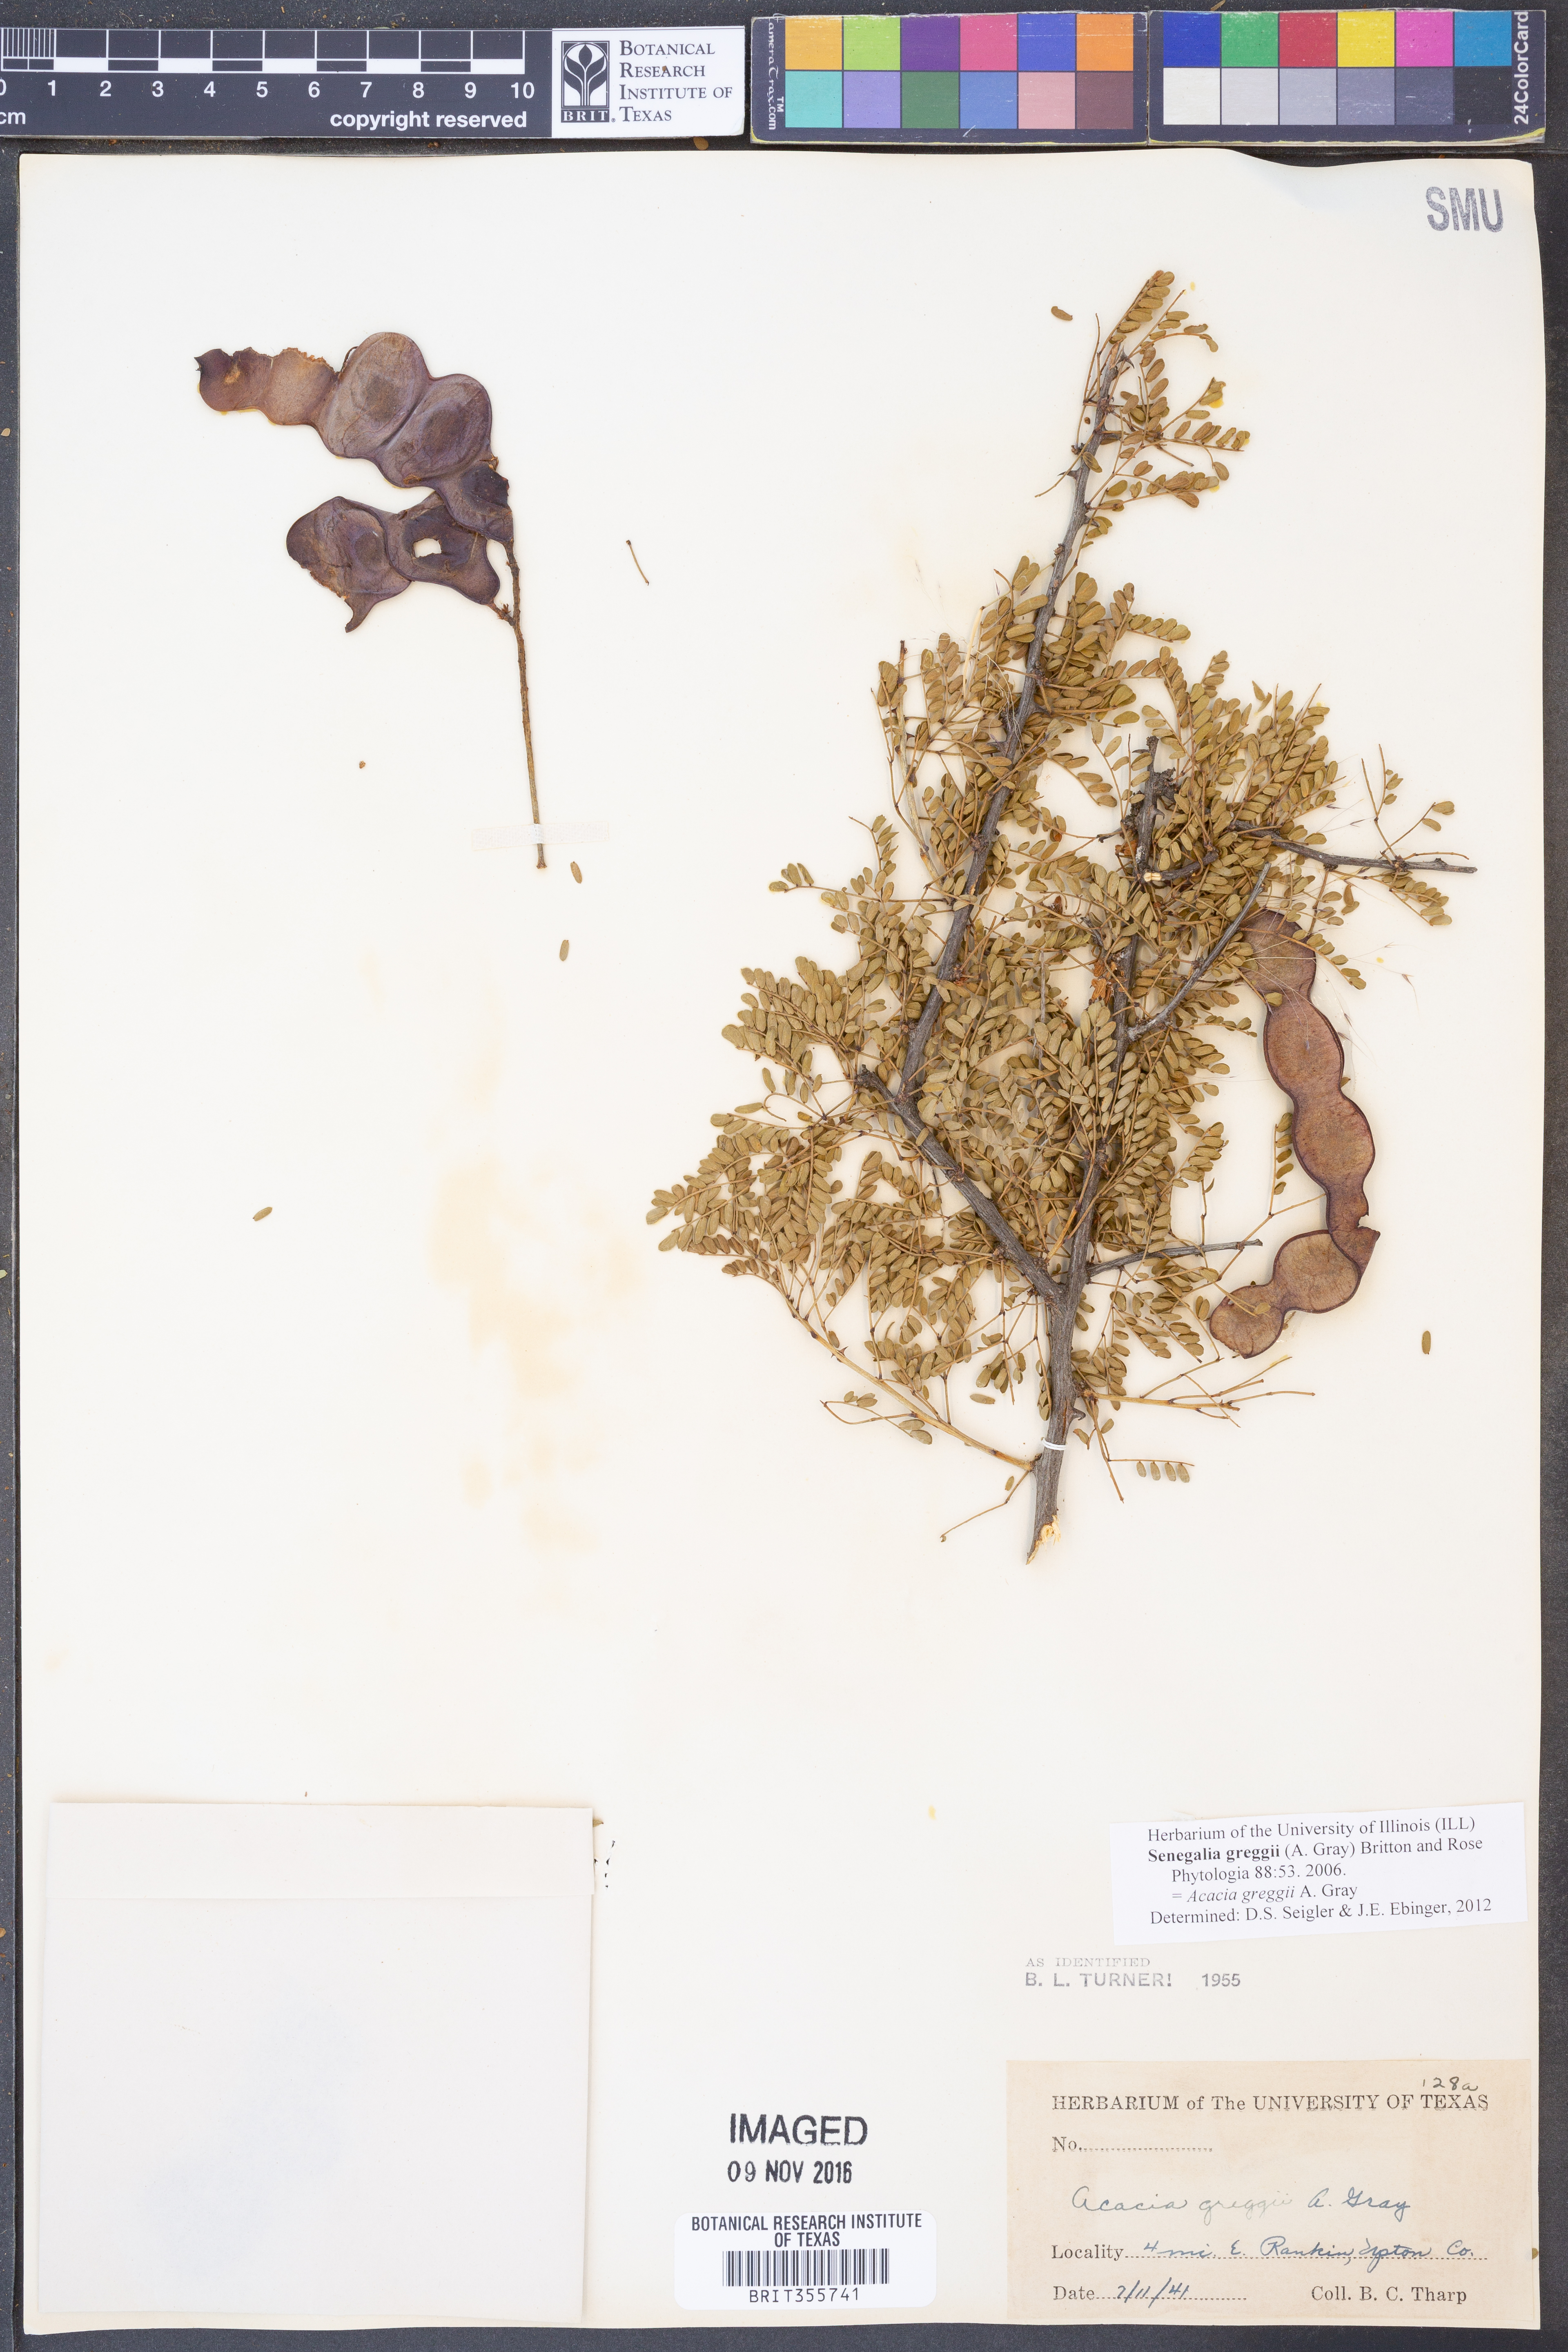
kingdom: Plantae
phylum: Tracheophyta
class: Magnoliopsida
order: Fabales
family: Fabaceae
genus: Senegalia
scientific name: Senegalia greggii
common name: Texas-mimosa
